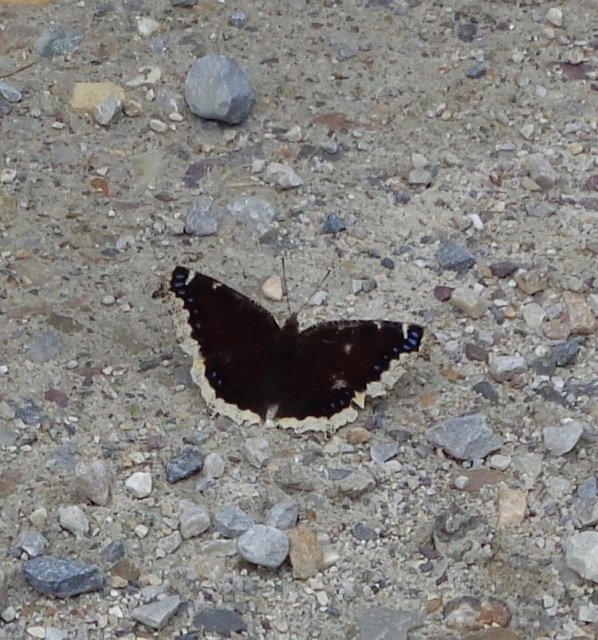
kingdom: Animalia
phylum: Arthropoda
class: Insecta
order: Lepidoptera
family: Nymphalidae
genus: Nymphalis
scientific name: Nymphalis antiopa
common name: Mourning Cloak
